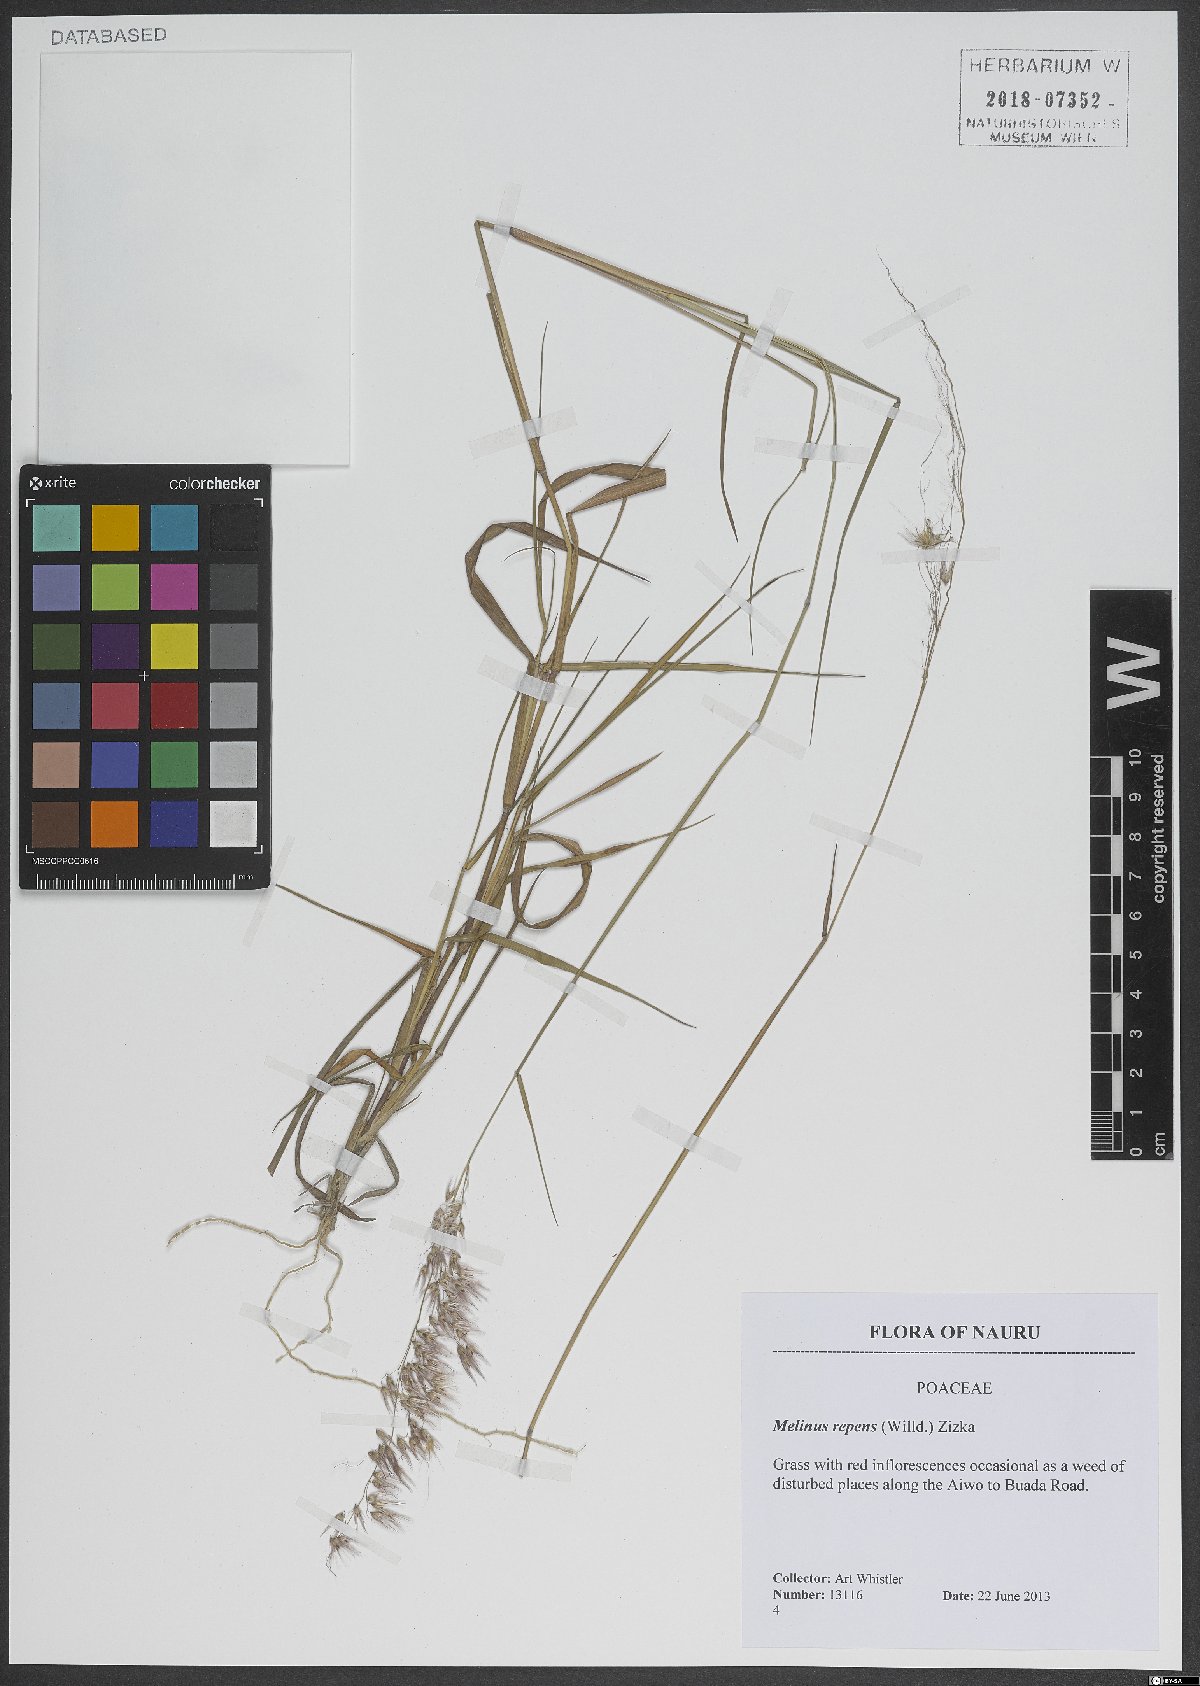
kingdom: Plantae
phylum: Tracheophyta
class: Liliopsida
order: Poales
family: Poaceae
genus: Melinis
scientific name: Melinis repens
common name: Rose natal grass
